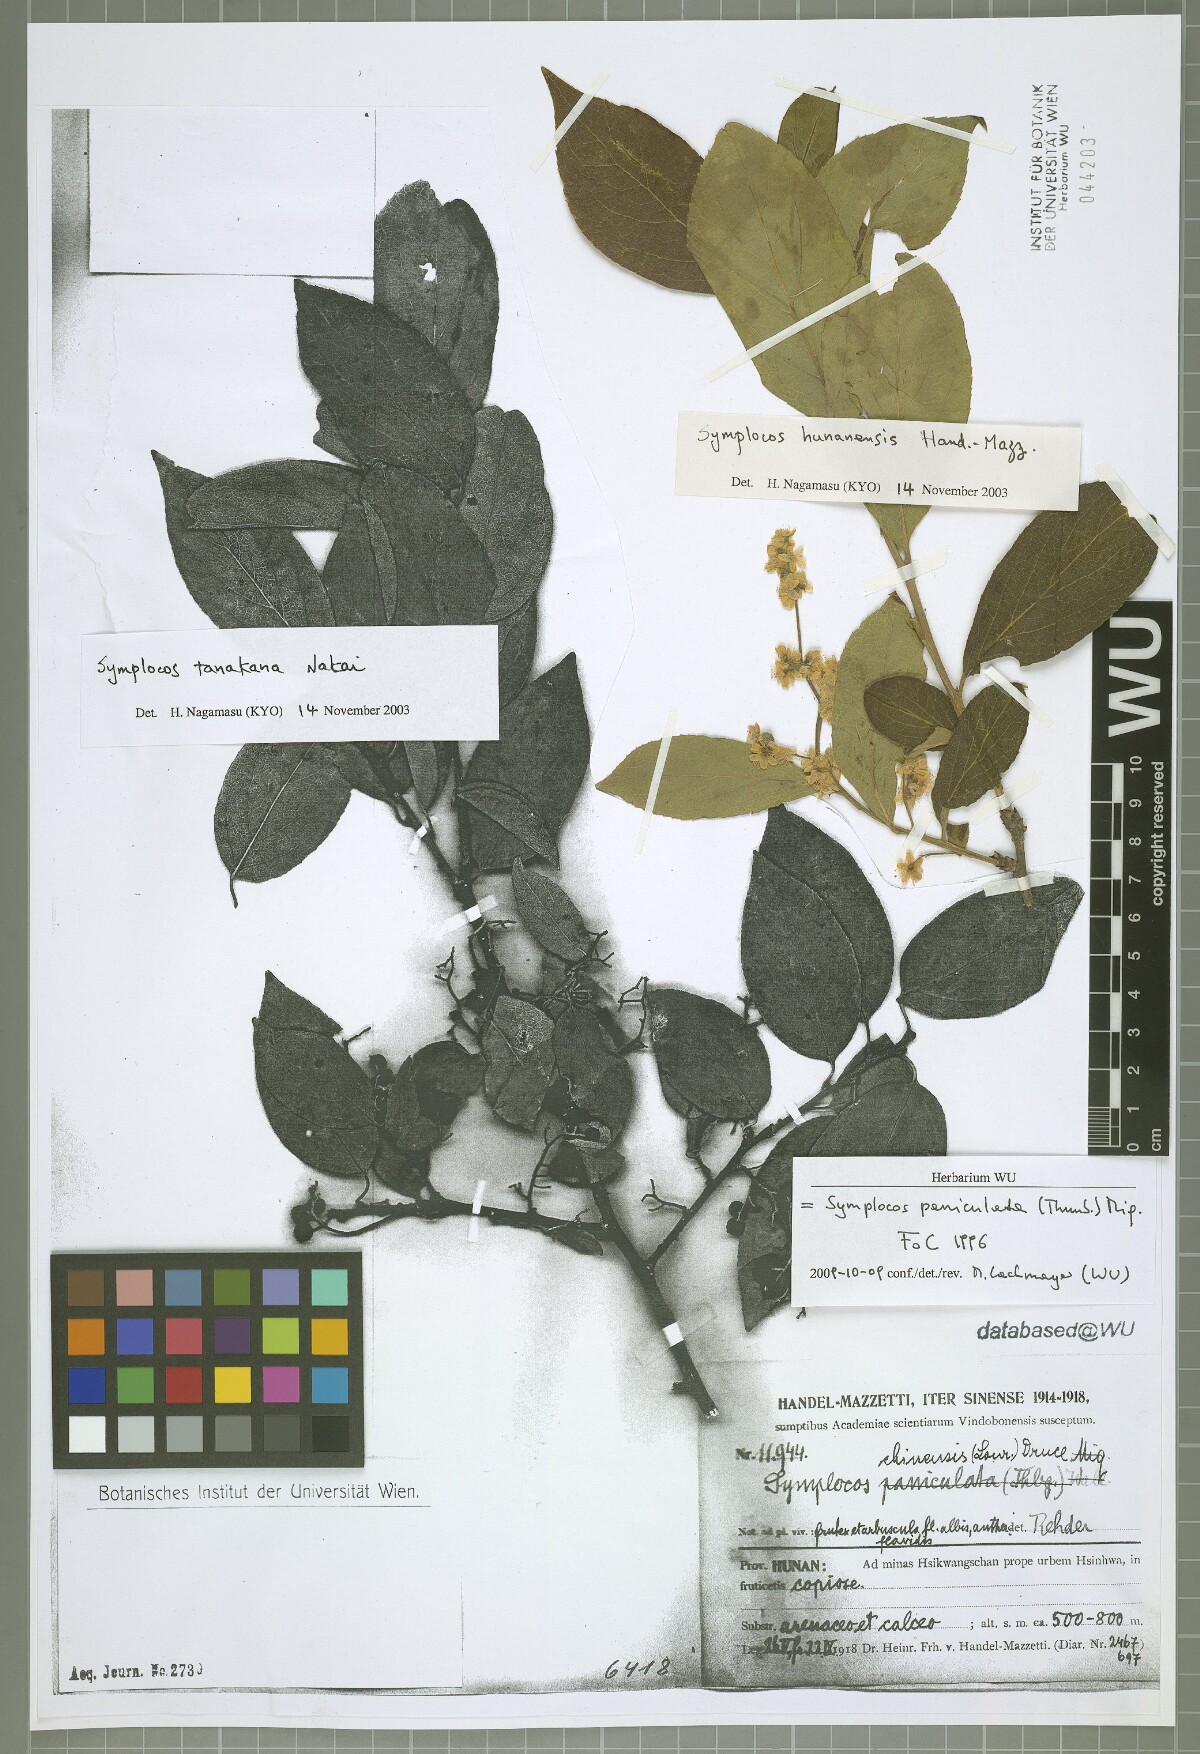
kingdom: Plantae
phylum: Tracheophyta
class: Magnoliopsida
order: Ericales
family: Symplocaceae
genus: Symplocos
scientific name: Symplocos paniculata
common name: Sapphire-berry
